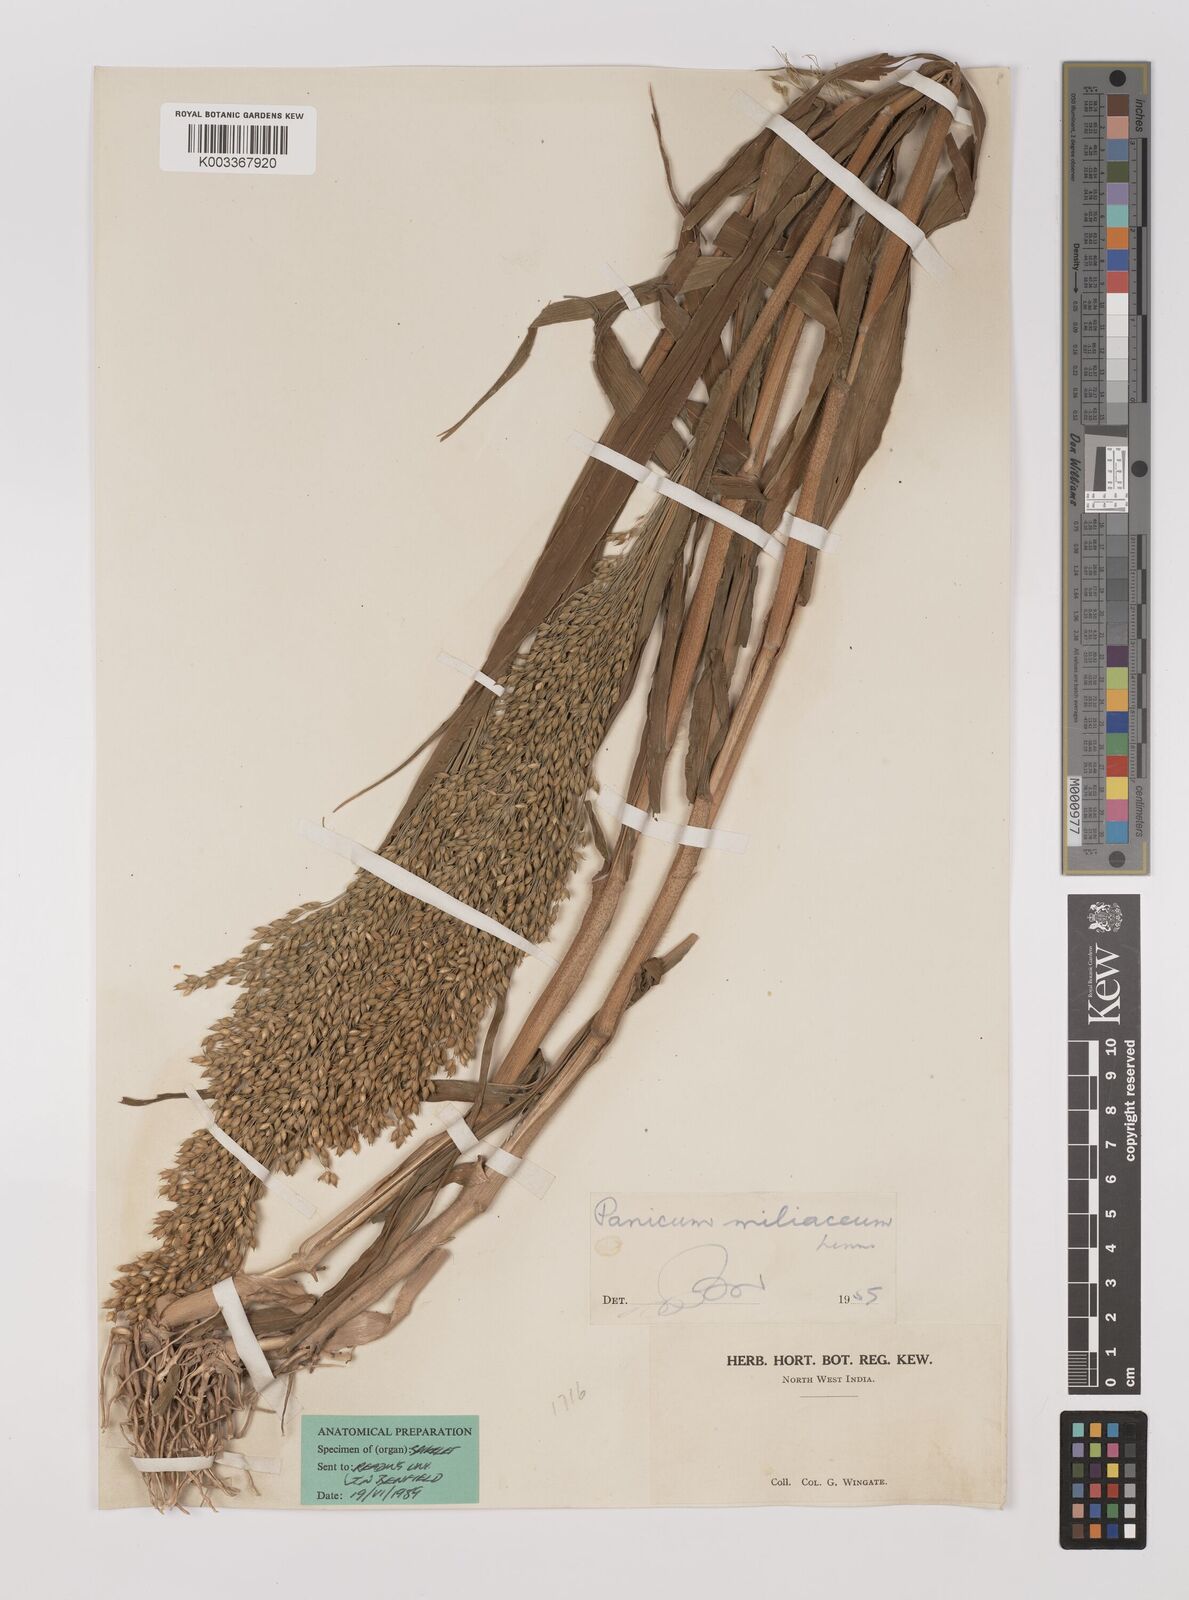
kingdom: Plantae
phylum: Tracheophyta
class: Liliopsida
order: Poales
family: Poaceae
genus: Panicum
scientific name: Panicum miliaceum
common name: Common millet
